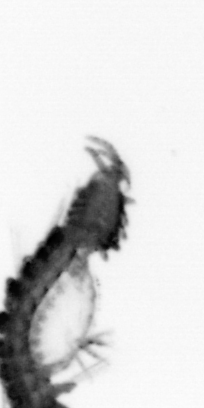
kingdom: Animalia
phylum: Annelida
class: Polychaeta
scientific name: Polychaeta
